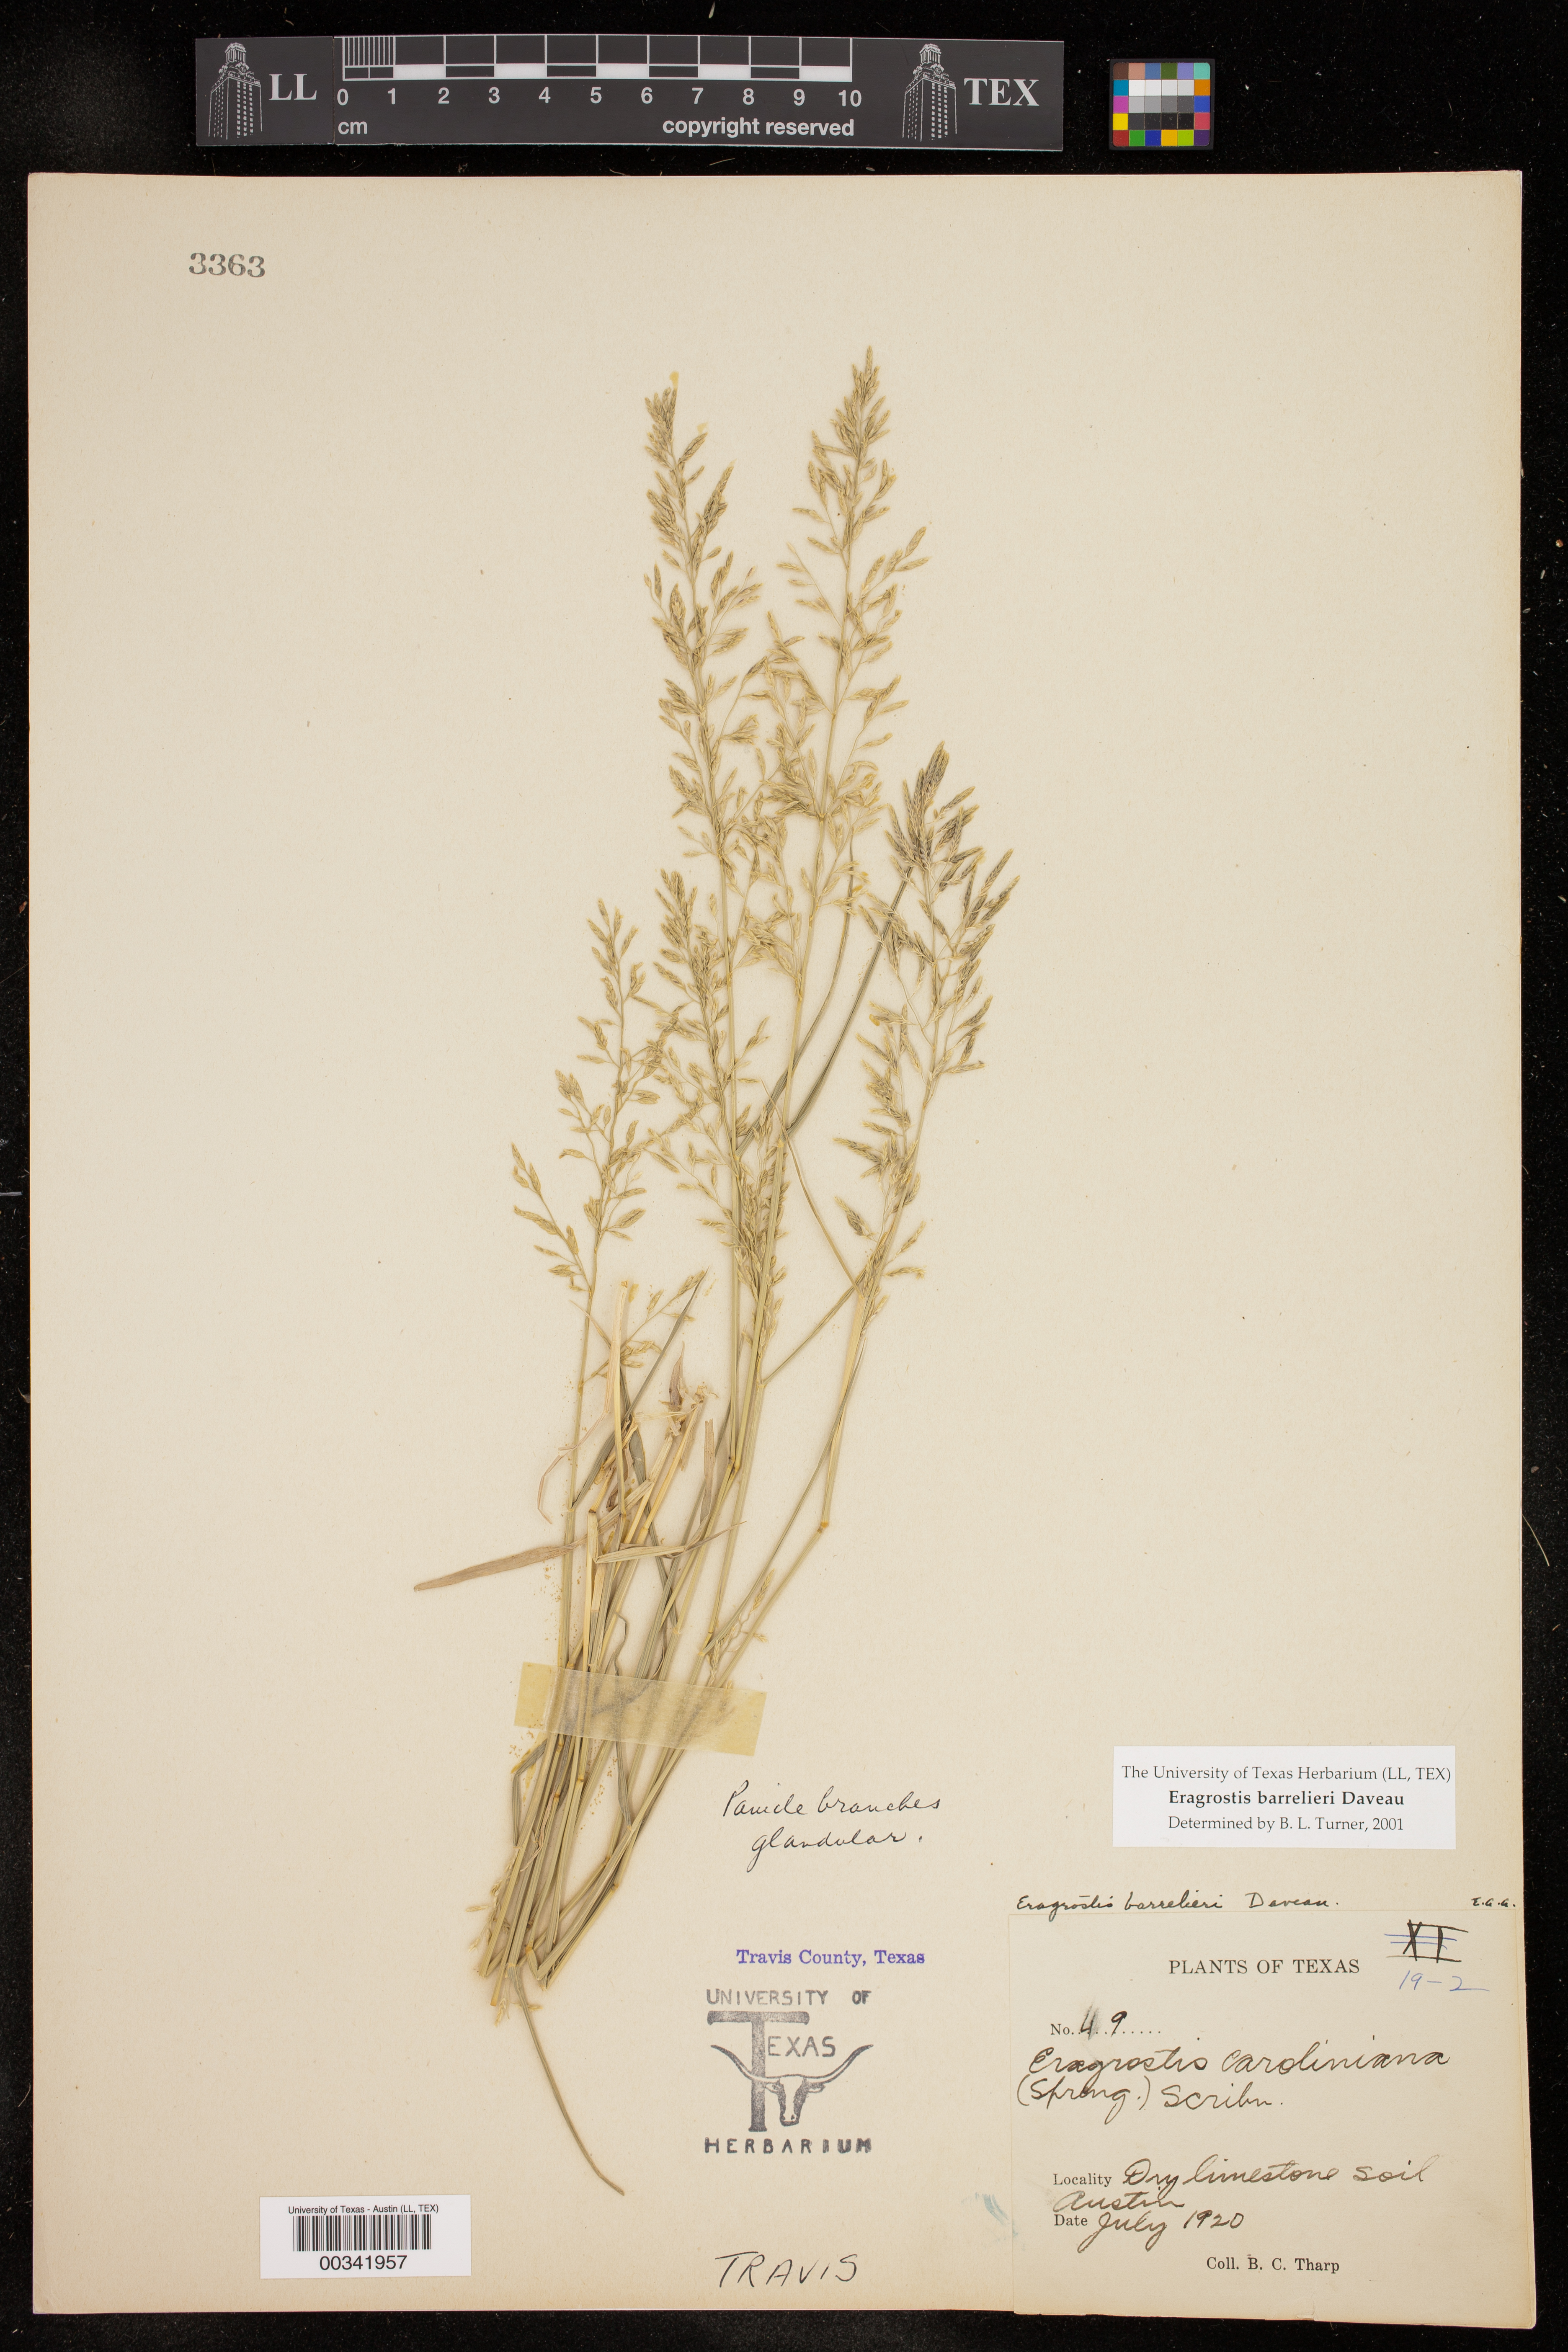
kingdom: Plantae
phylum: Tracheophyta
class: Liliopsida
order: Poales
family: Poaceae
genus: Eragrostis
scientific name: Eragrostis barrelieri
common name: Mediterranean lovegrass
